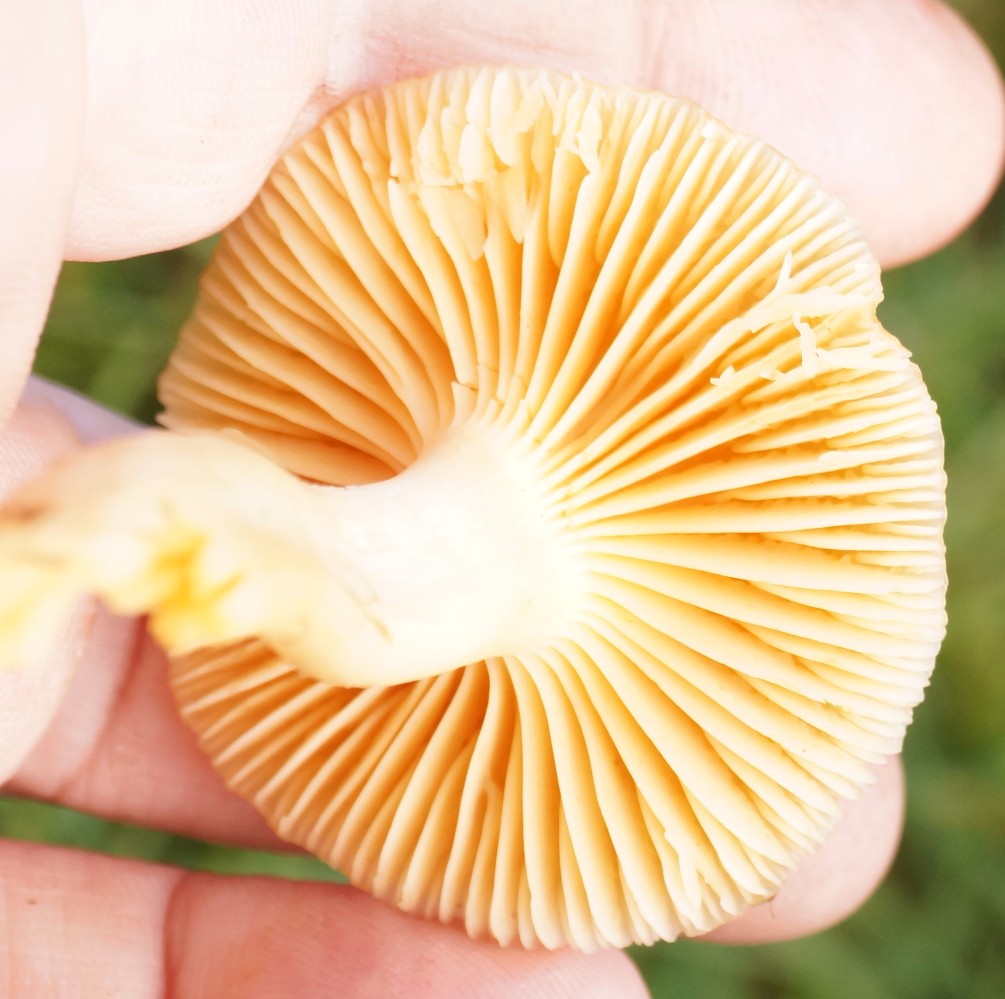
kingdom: Fungi
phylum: Basidiomycota
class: Agaricomycetes
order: Agaricales
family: Hygrophoraceae
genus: Cuphophyllus
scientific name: Cuphophyllus pratensis
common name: eng-vokshat
